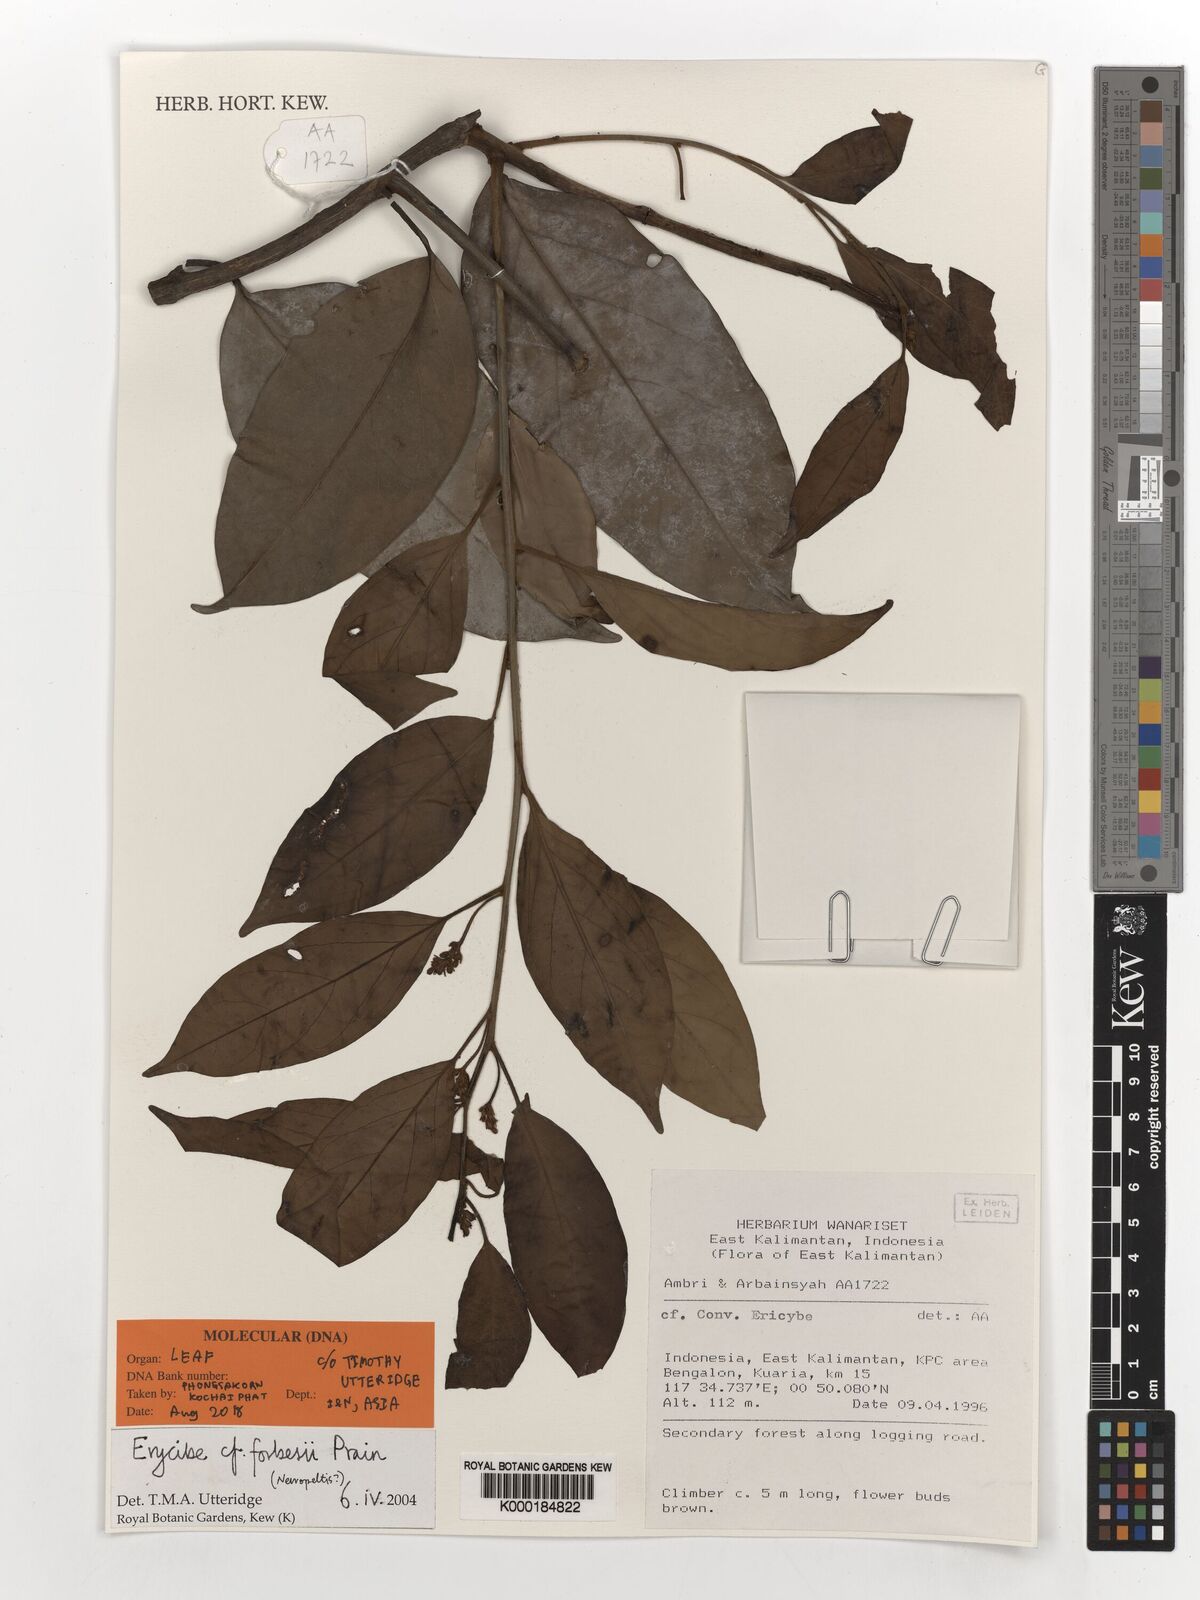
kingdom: Plantae
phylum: Tracheophyta
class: Magnoliopsida
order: Solanales
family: Convolvulaceae
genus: Erycibe
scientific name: Erycibe forbesii
